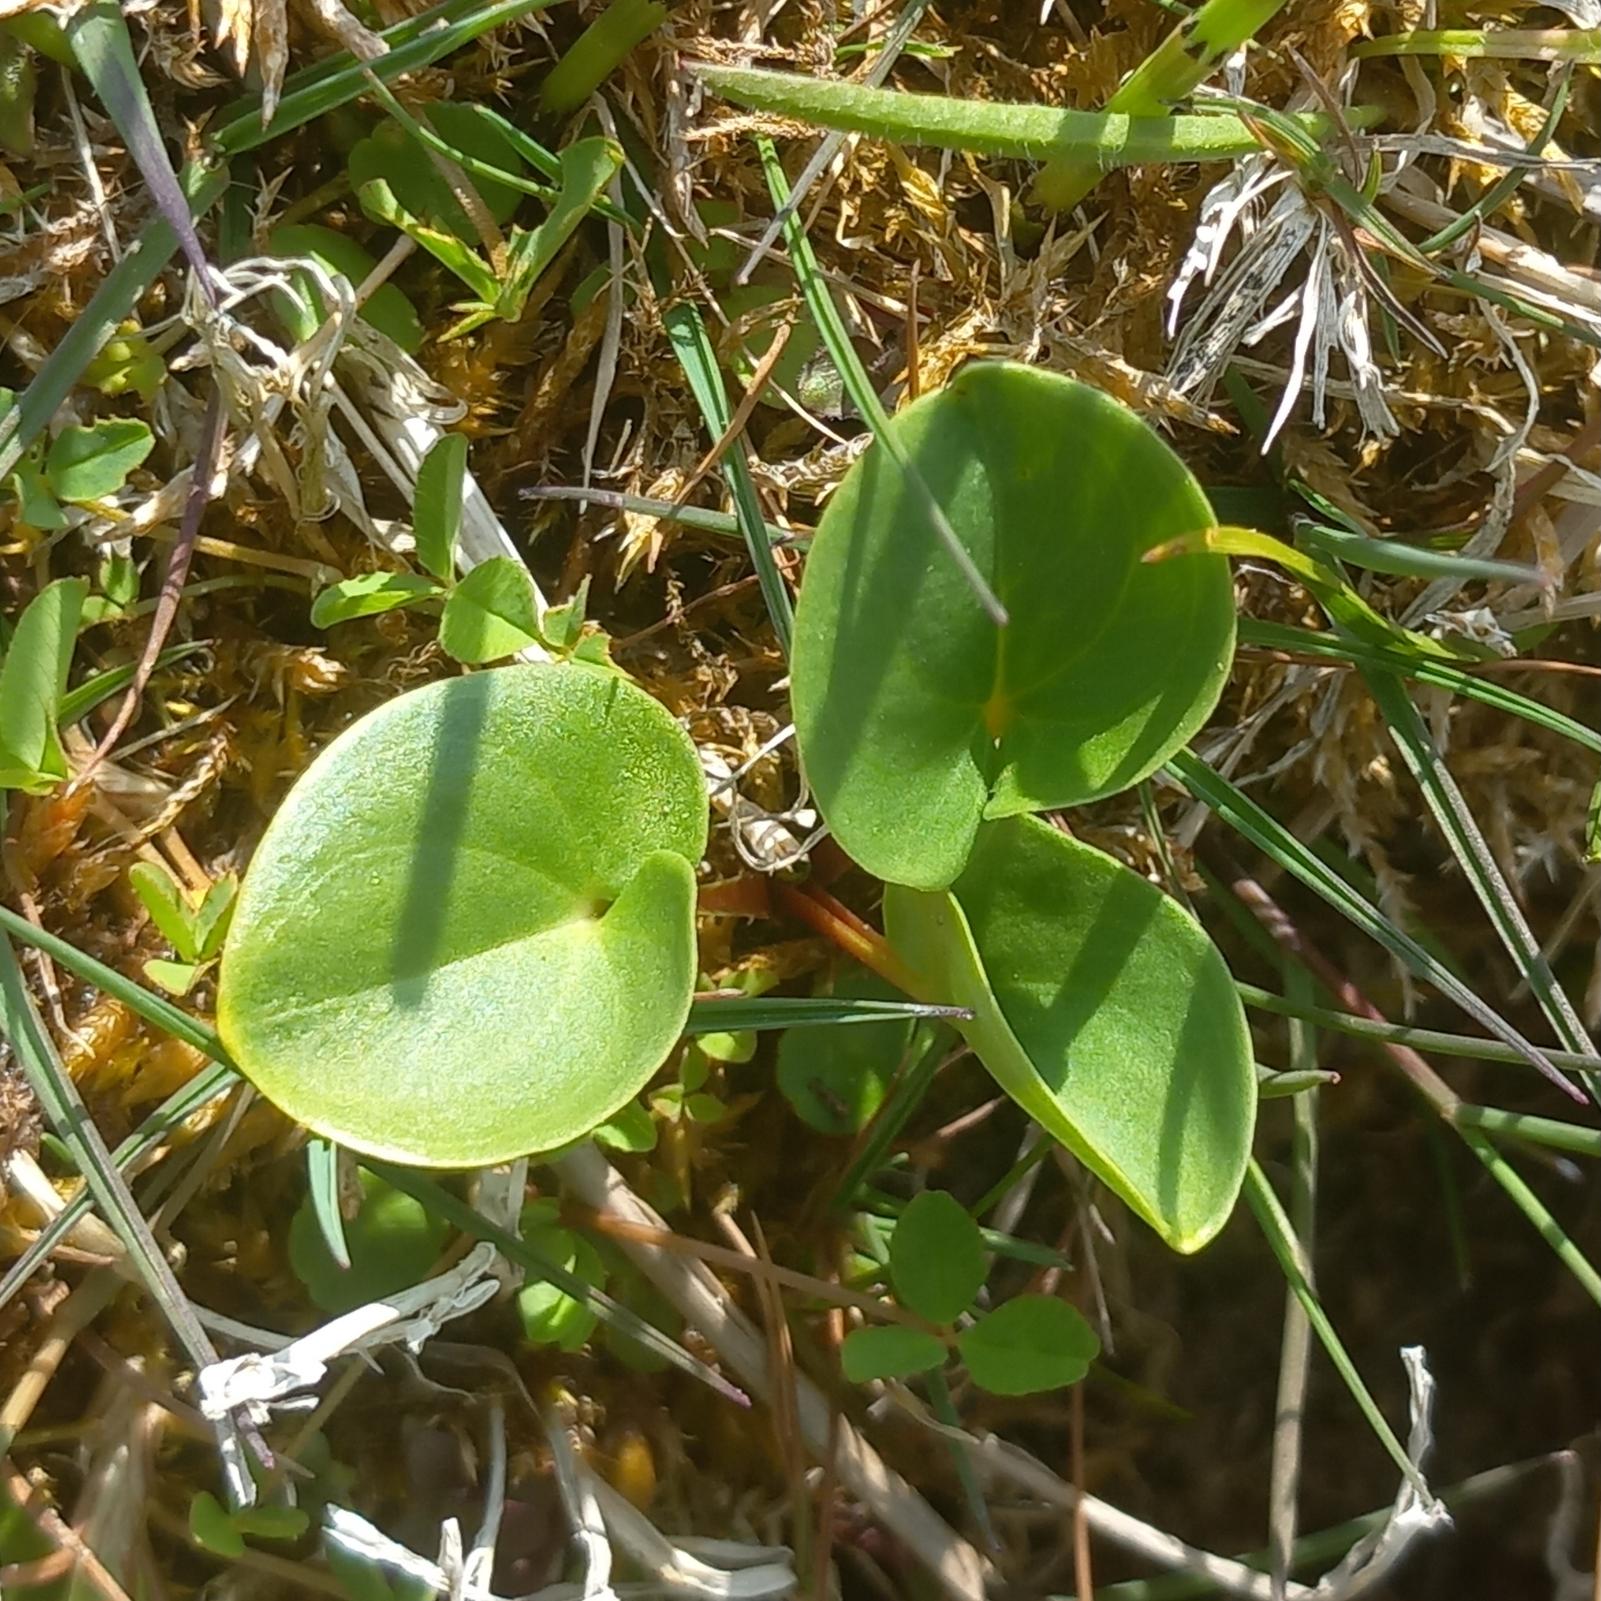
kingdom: Plantae
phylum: Tracheophyta
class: Magnoliopsida
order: Celastrales
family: Parnassiaceae
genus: Parnassia
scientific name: Parnassia palustris
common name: Leverurt
